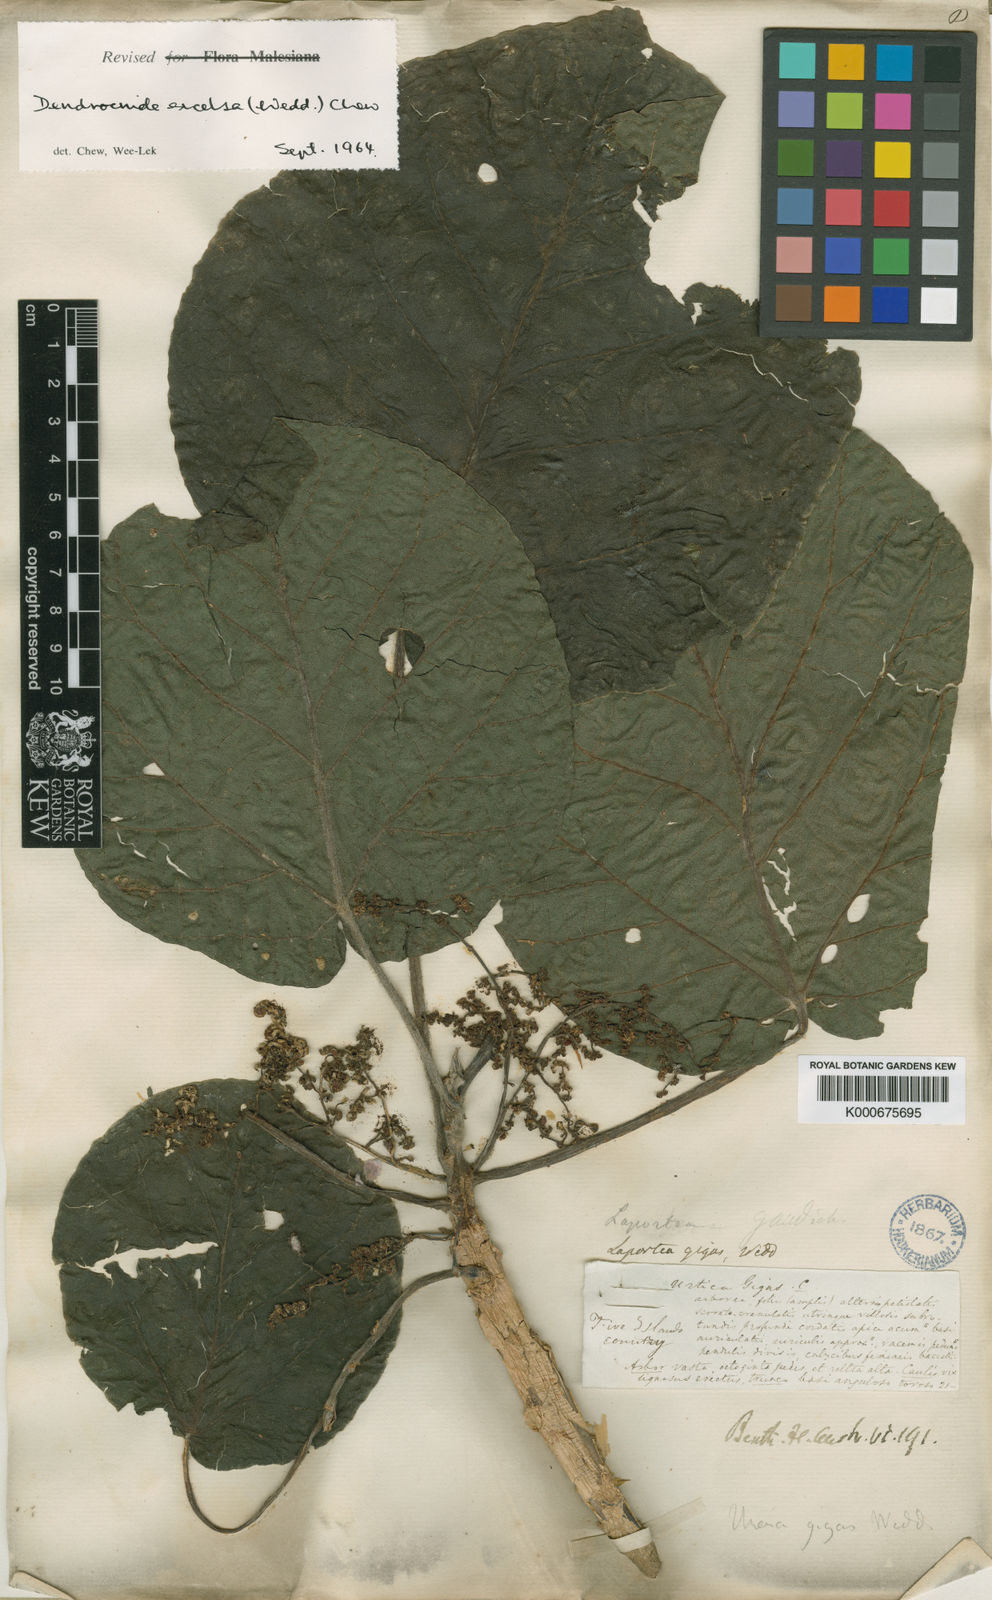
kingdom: Plantae
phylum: Tracheophyta
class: Magnoliopsida
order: Rosales
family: Urticaceae
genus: Dendrocnide
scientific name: Dendrocnide excelsa
